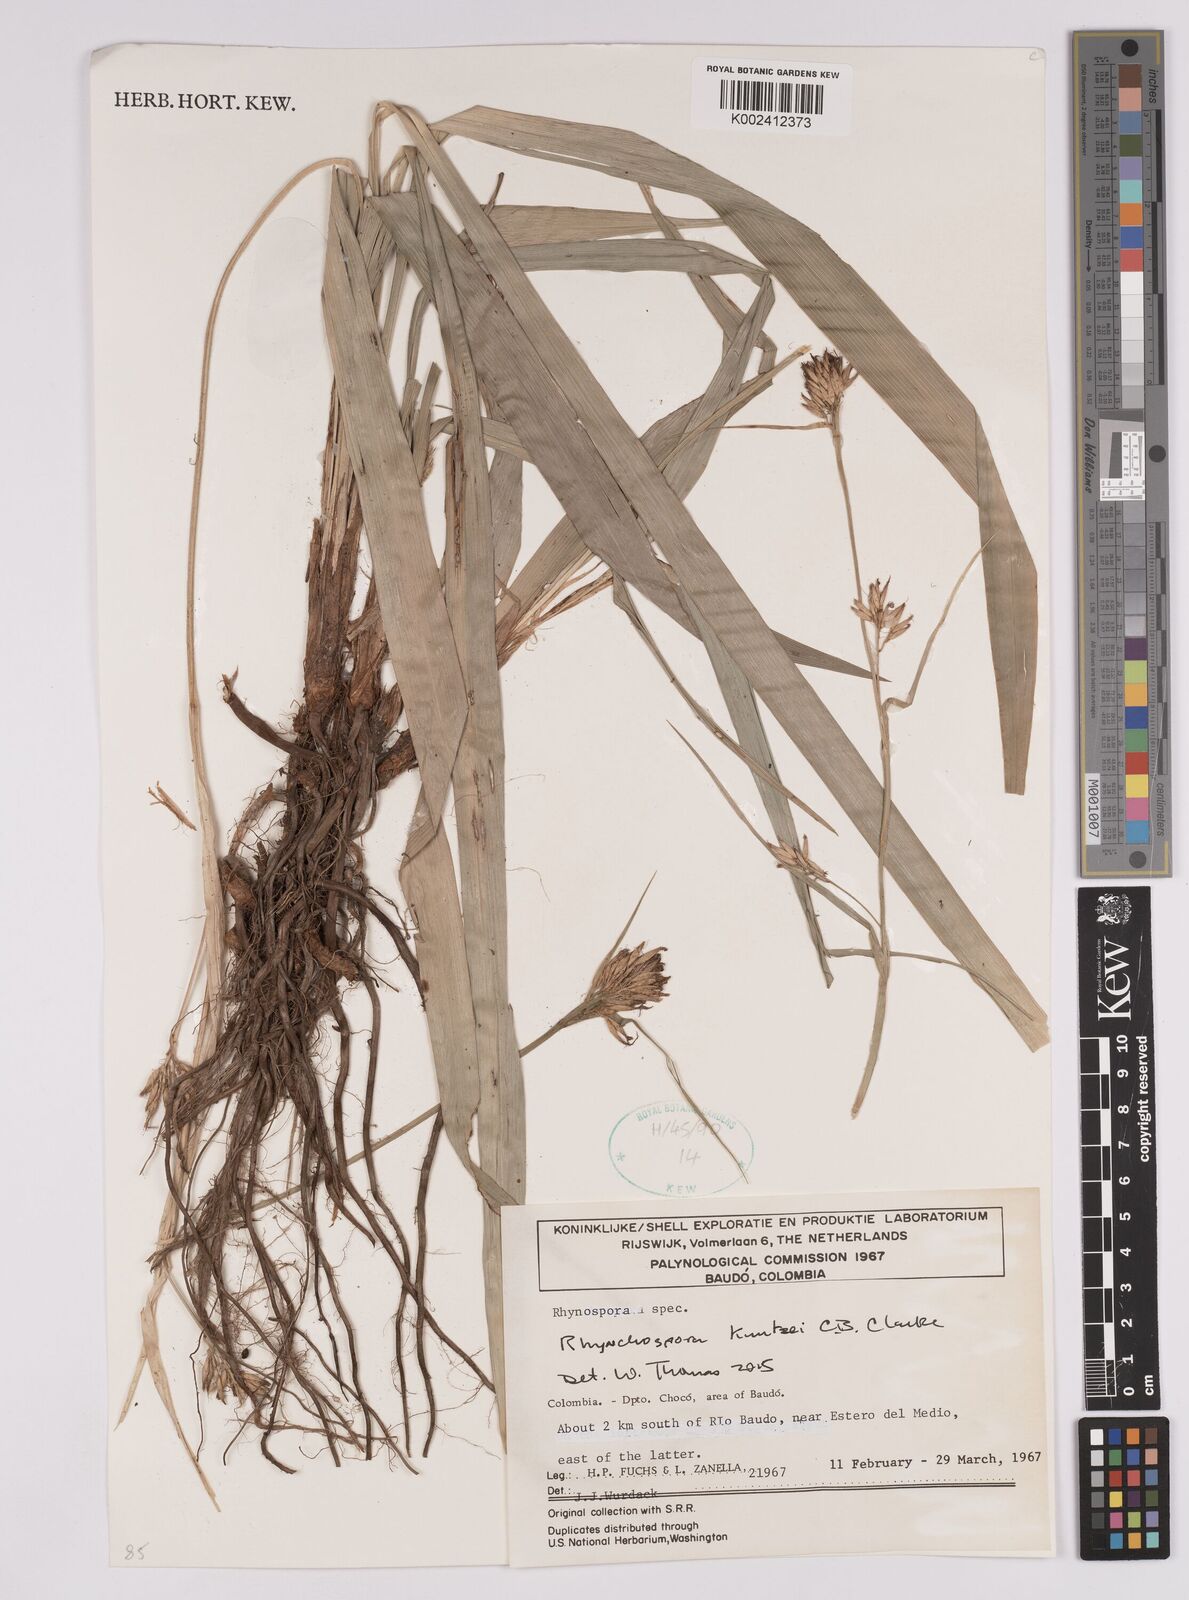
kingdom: Plantae
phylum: Tracheophyta
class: Liliopsida
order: Poales
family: Cyperaceae
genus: Rhynchospora
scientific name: Rhynchospora umbraticola
